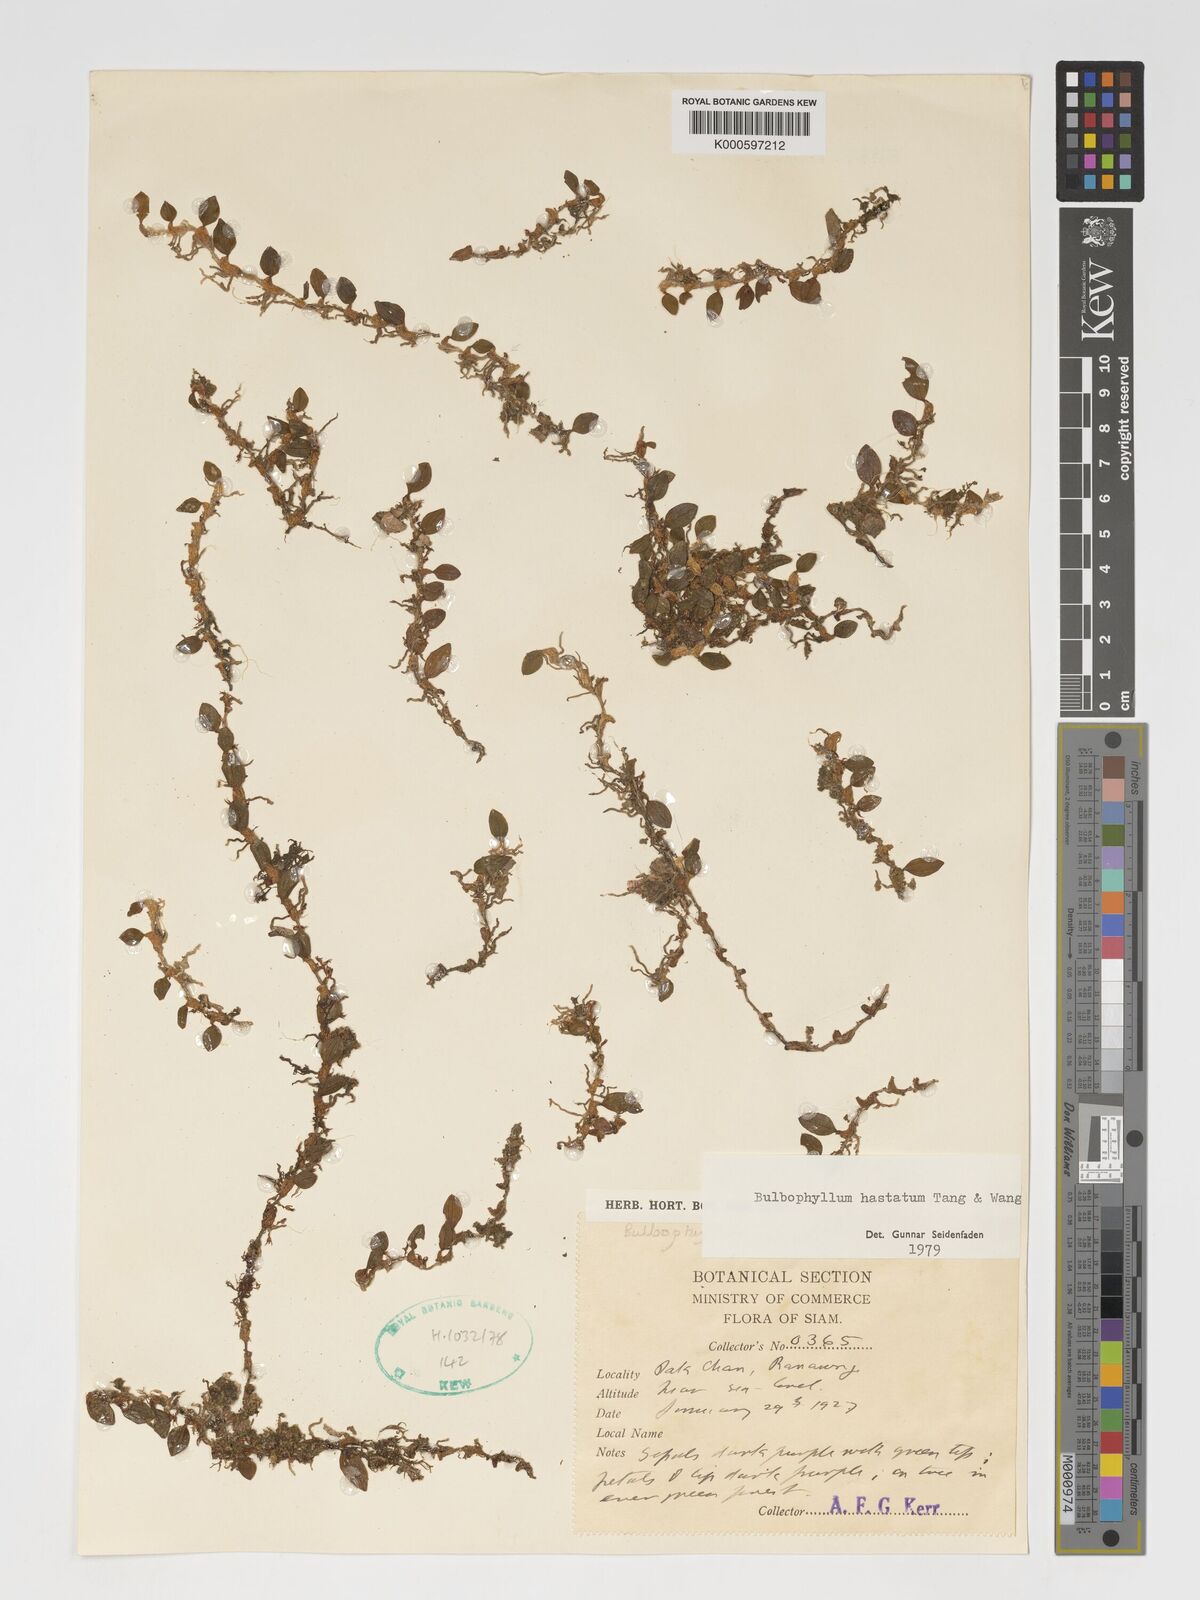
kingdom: Plantae
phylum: Tracheophyta
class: Liliopsida
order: Asparagales
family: Orchidaceae
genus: Bulbophyllum
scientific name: Bulbophyllum depressum
